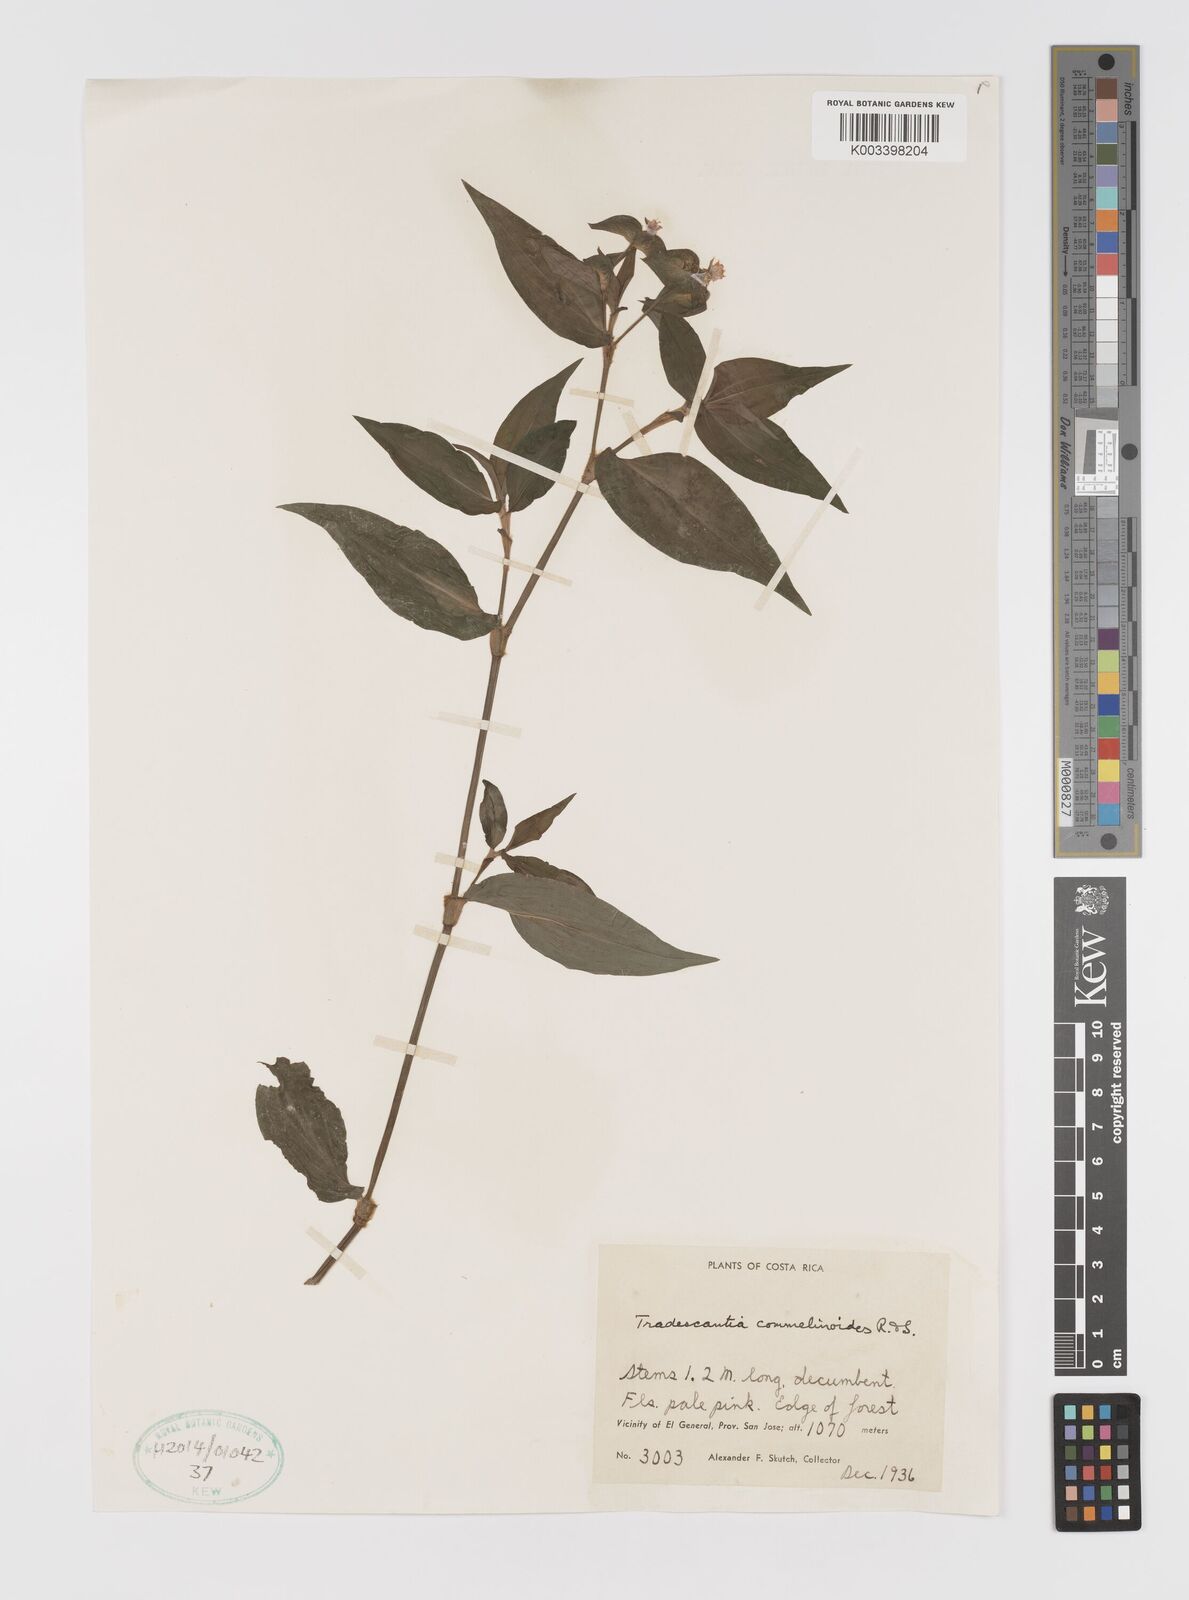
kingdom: Plantae
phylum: Tracheophyta
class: Liliopsida
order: Commelinales
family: Commelinaceae
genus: Tradescantia
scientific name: Tradescantia commelinoides
